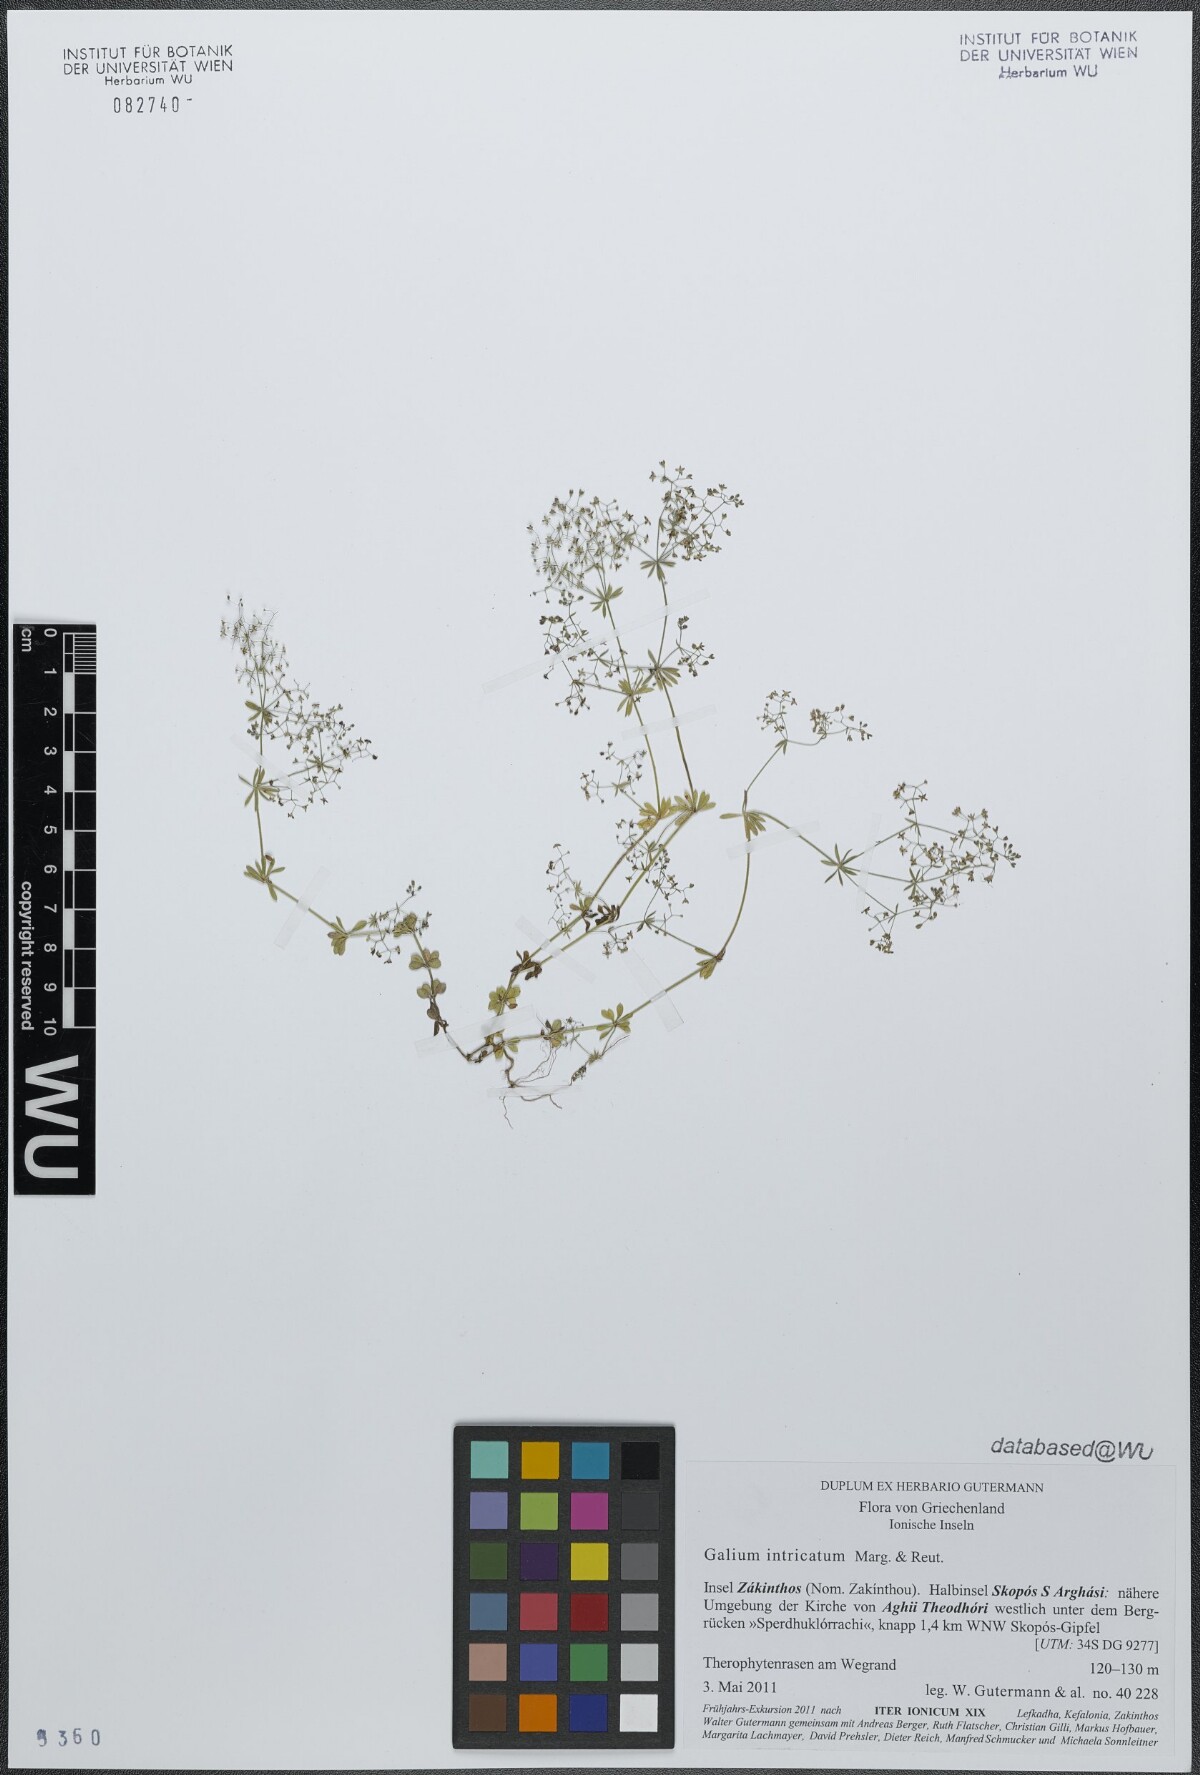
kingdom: Plantae
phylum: Tracheophyta
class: Magnoliopsida
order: Gentianales
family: Rubiaceae
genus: Galium
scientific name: Galium intricatum
